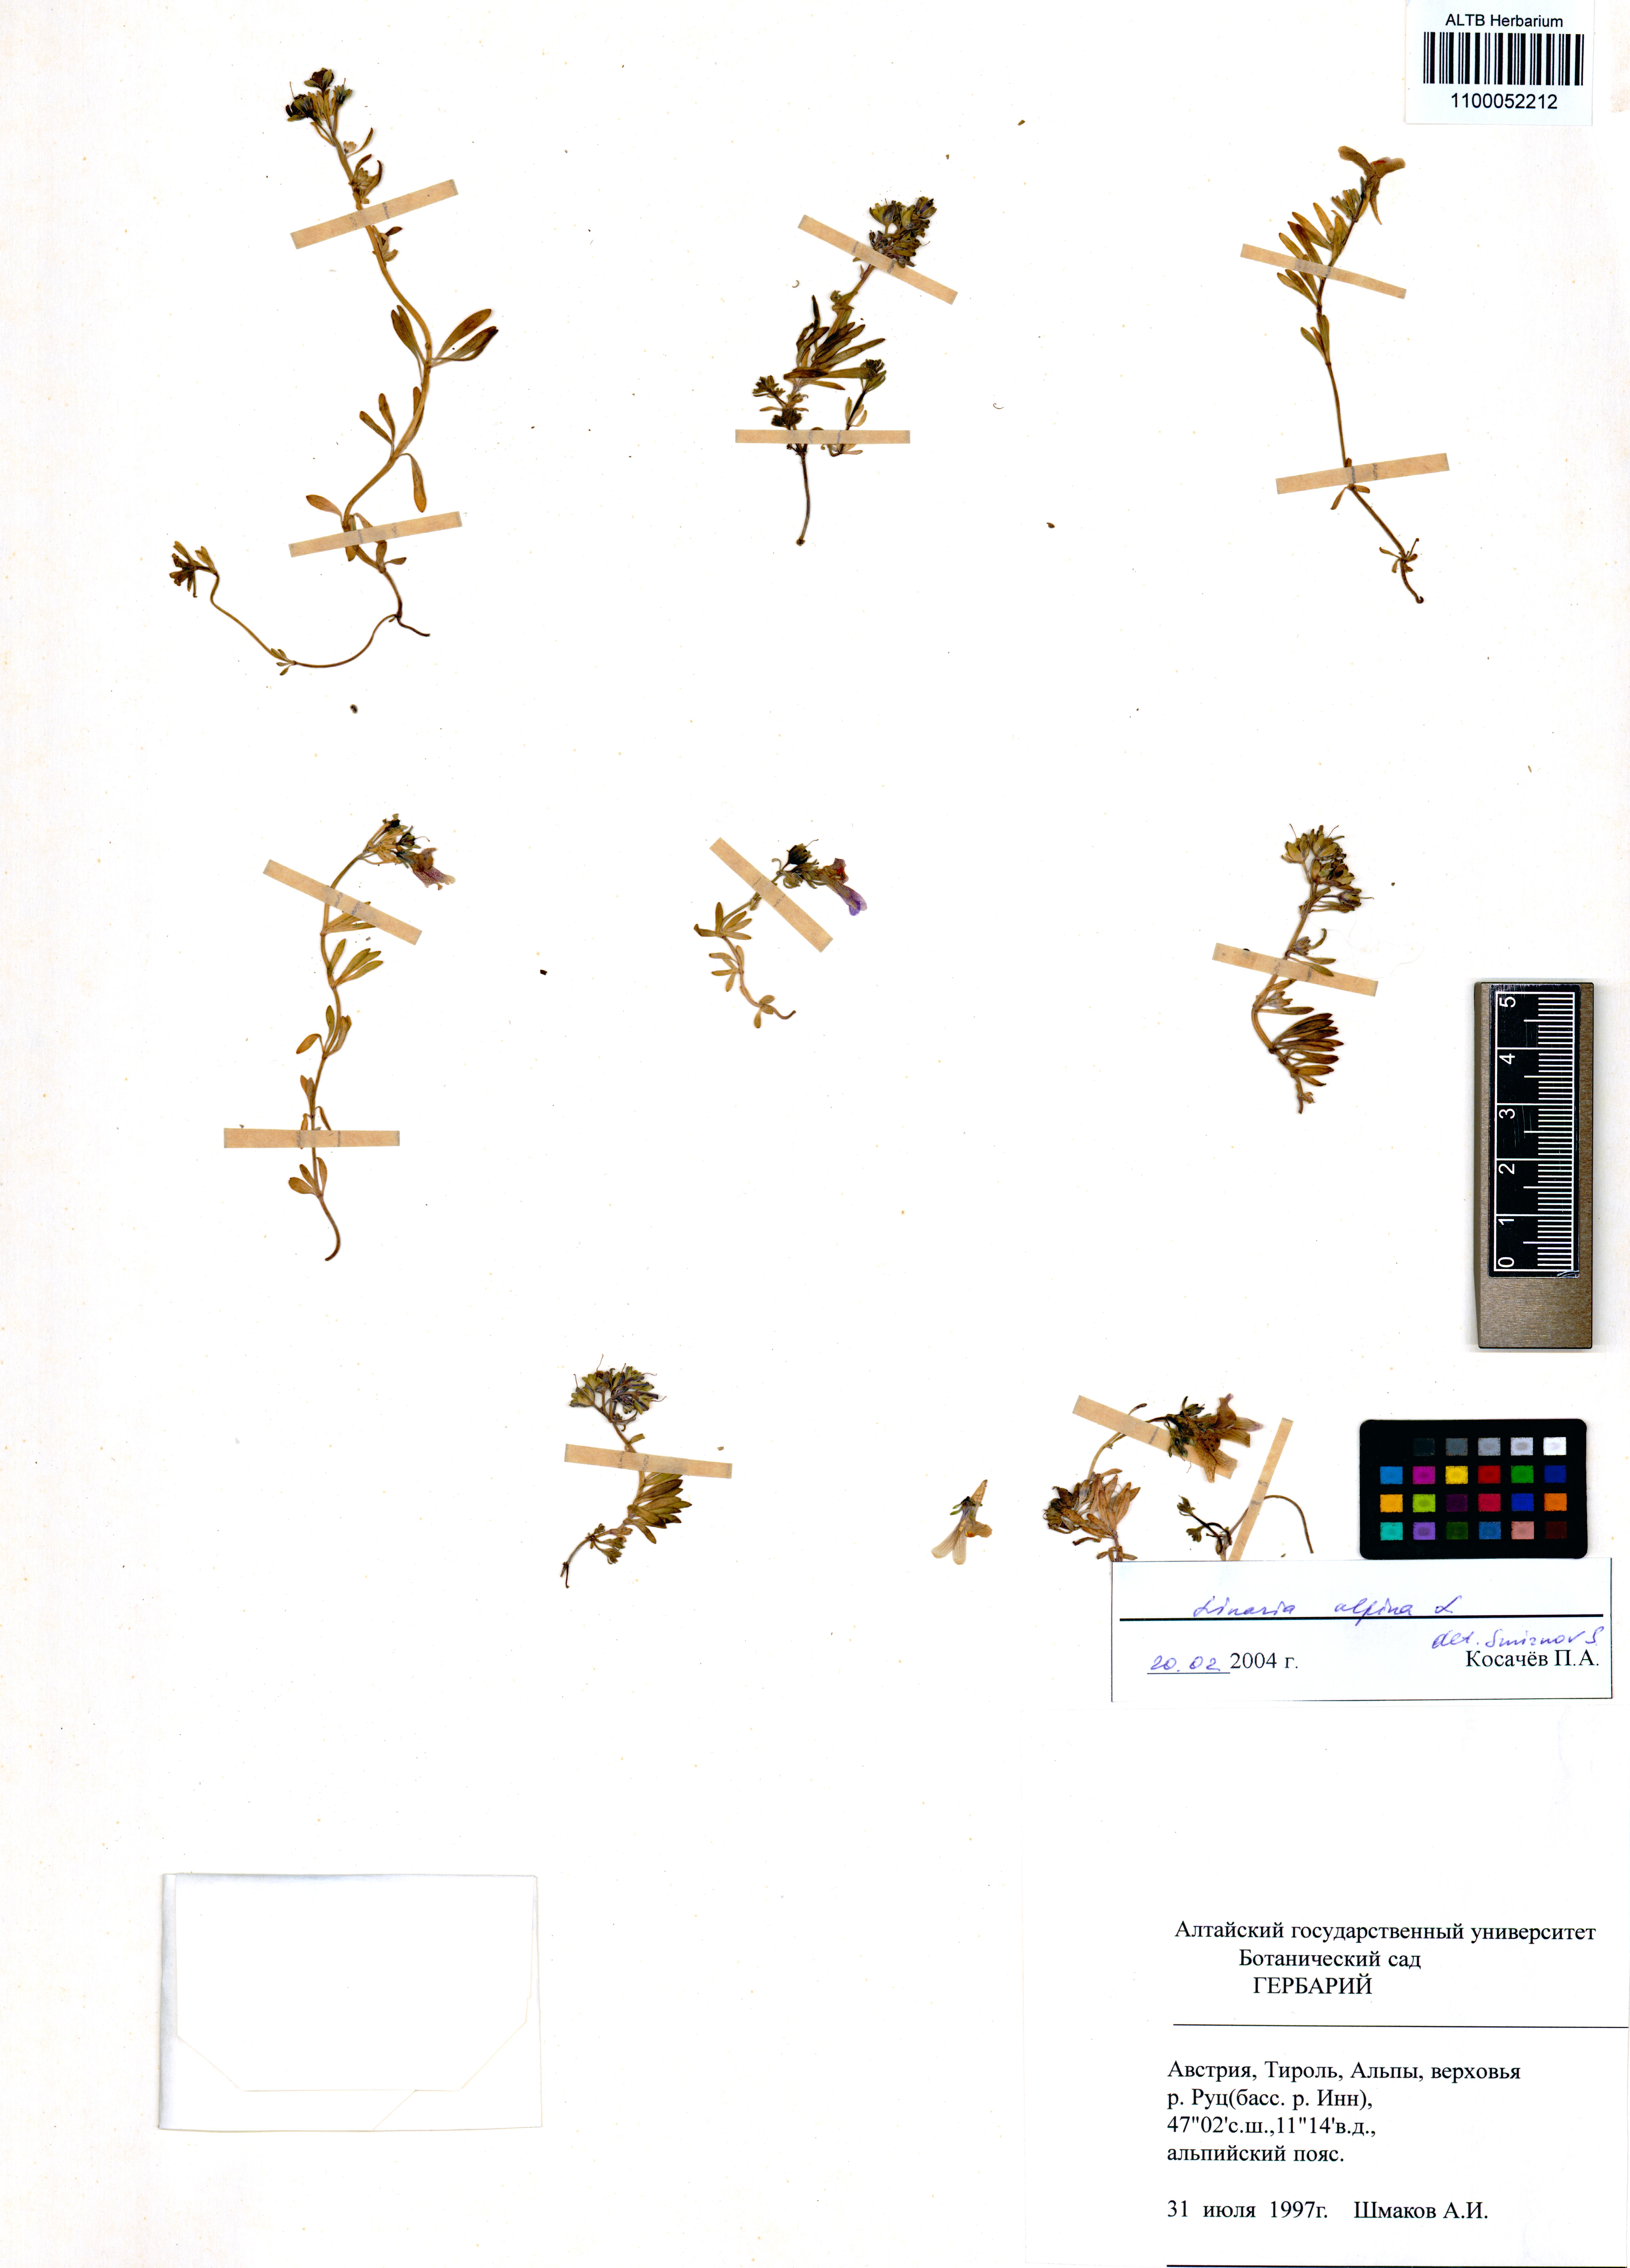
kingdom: Plantae
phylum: Tracheophyta
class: Magnoliopsida
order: Lamiales
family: Plantaginaceae
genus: Linaria
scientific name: Linaria alpina
